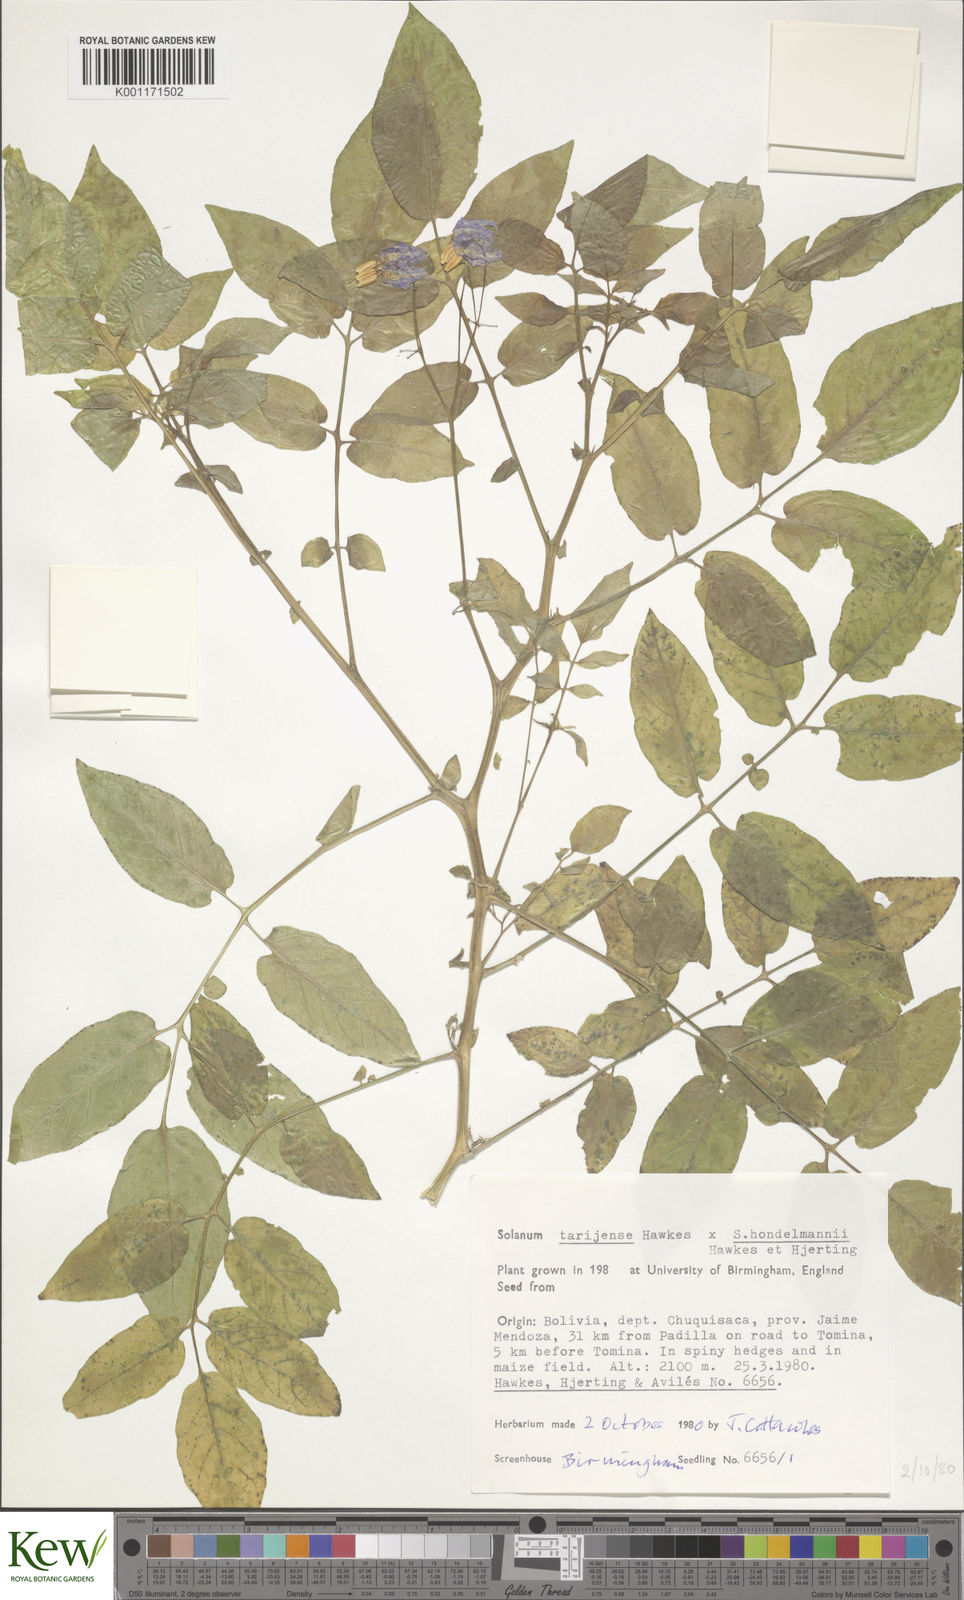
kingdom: Plantae
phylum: Tracheophyta
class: Magnoliopsida
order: Solanales
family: Solanaceae
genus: Solanum
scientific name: Solanum tarijense
